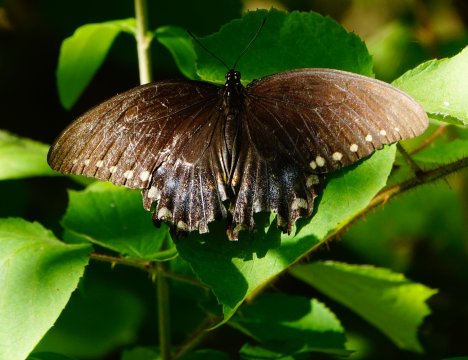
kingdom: Animalia
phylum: Arthropoda
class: Insecta
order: Lepidoptera
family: Papilionidae
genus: Pterourus
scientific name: Pterourus troilus
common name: Spicebush Swallowtail
